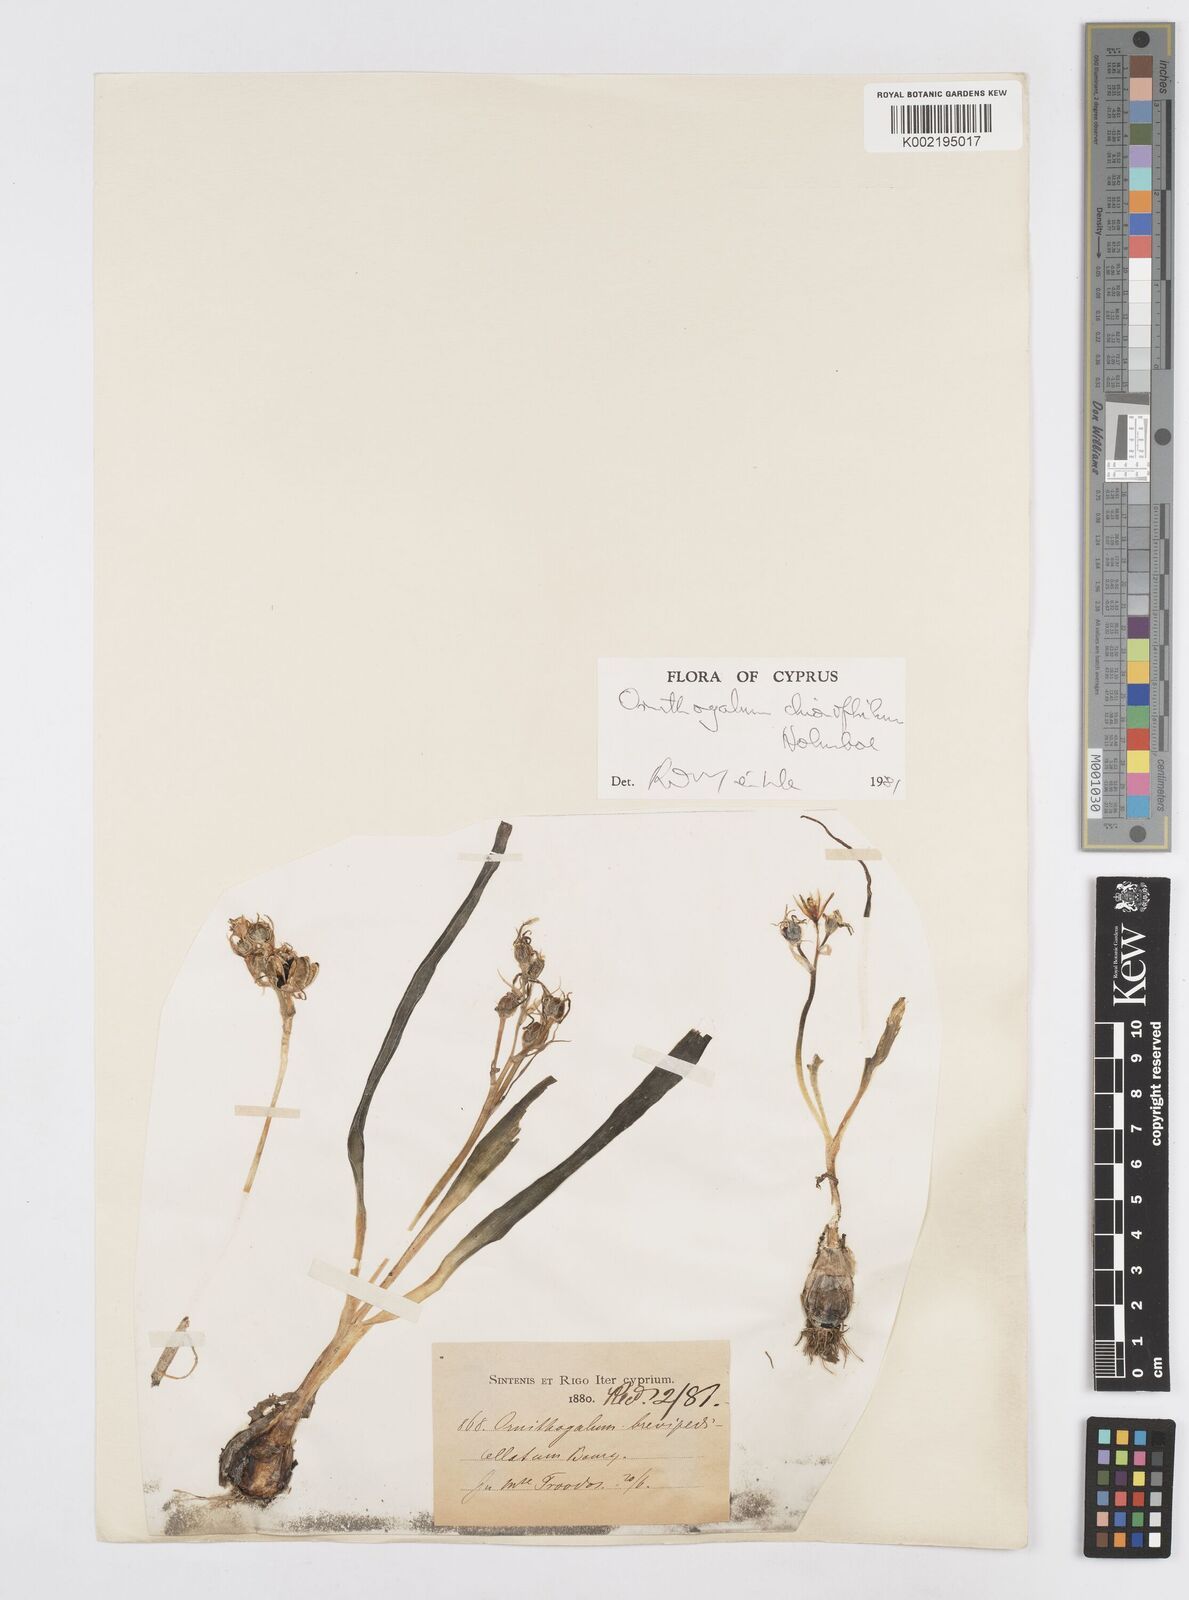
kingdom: Plantae
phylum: Tracheophyta
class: Liliopsida
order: Asparagales
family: Asparagaceae
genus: Ornithogalum
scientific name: Ornithogalum chionophilum
